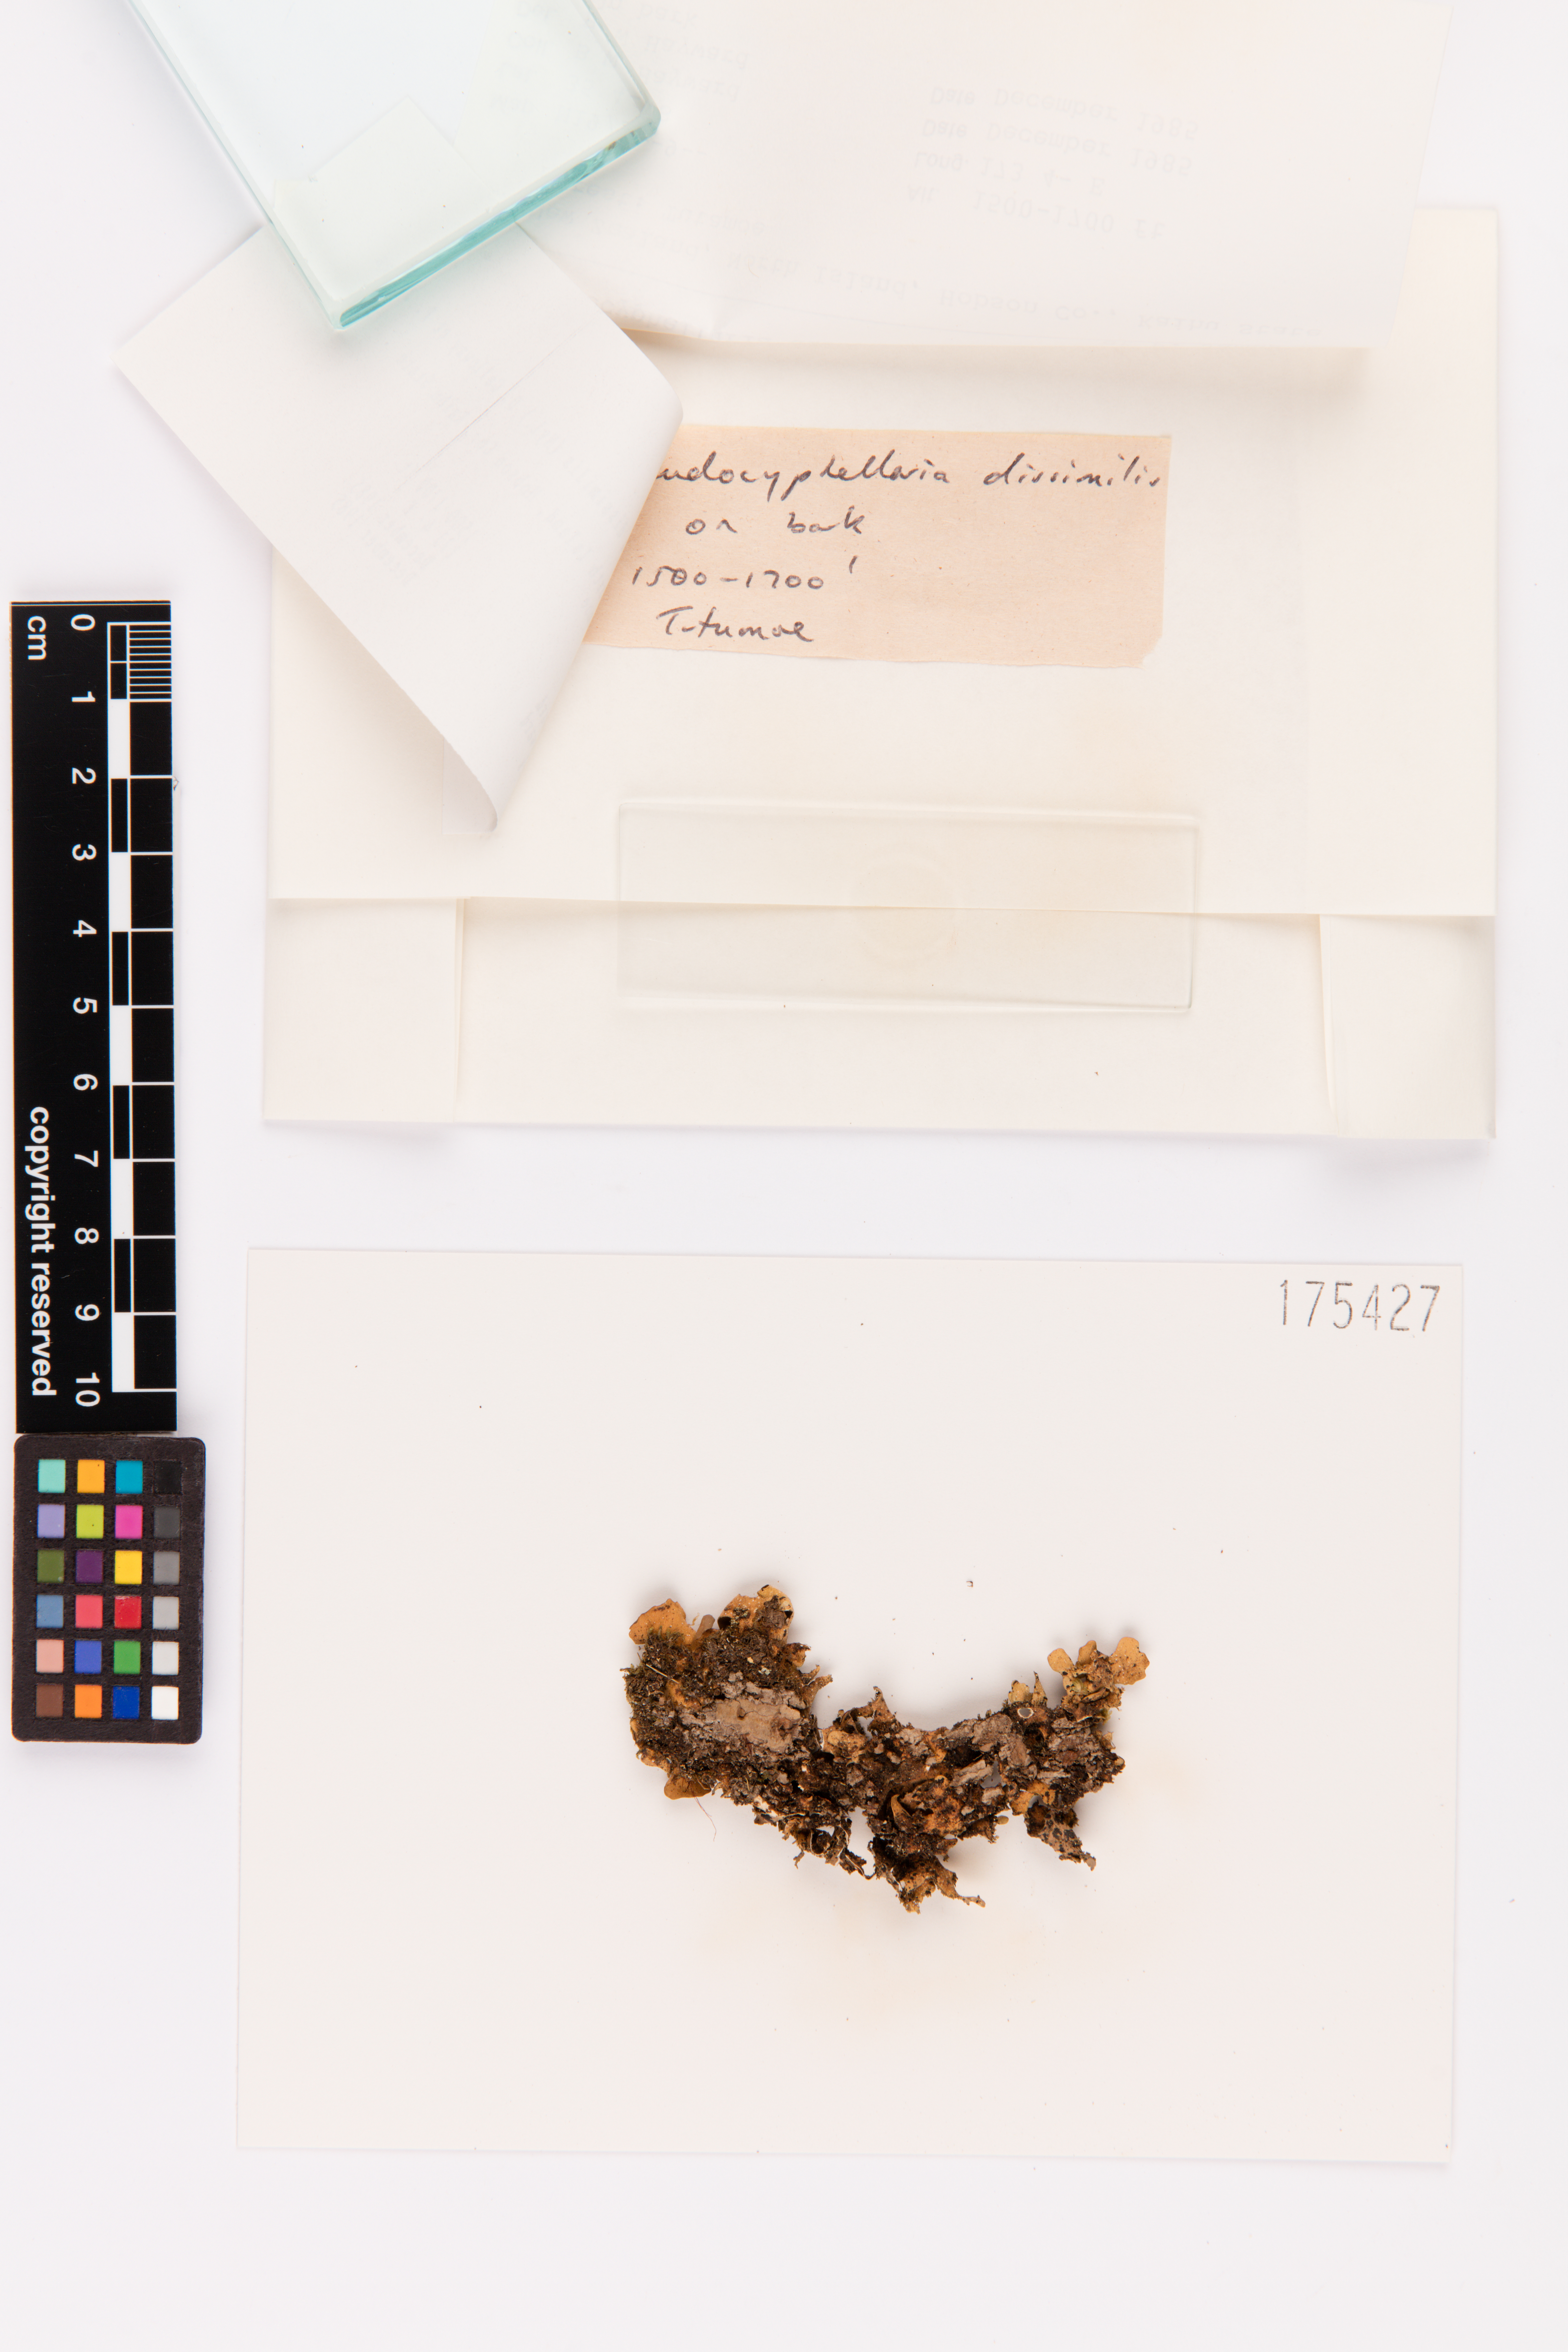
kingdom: Fungi
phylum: Ascomycota
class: Lecanoromycetes
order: Peltigerales
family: Lobariaceae
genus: Pseudocyphellaria
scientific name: Pseudocyphellaria dissimilis
